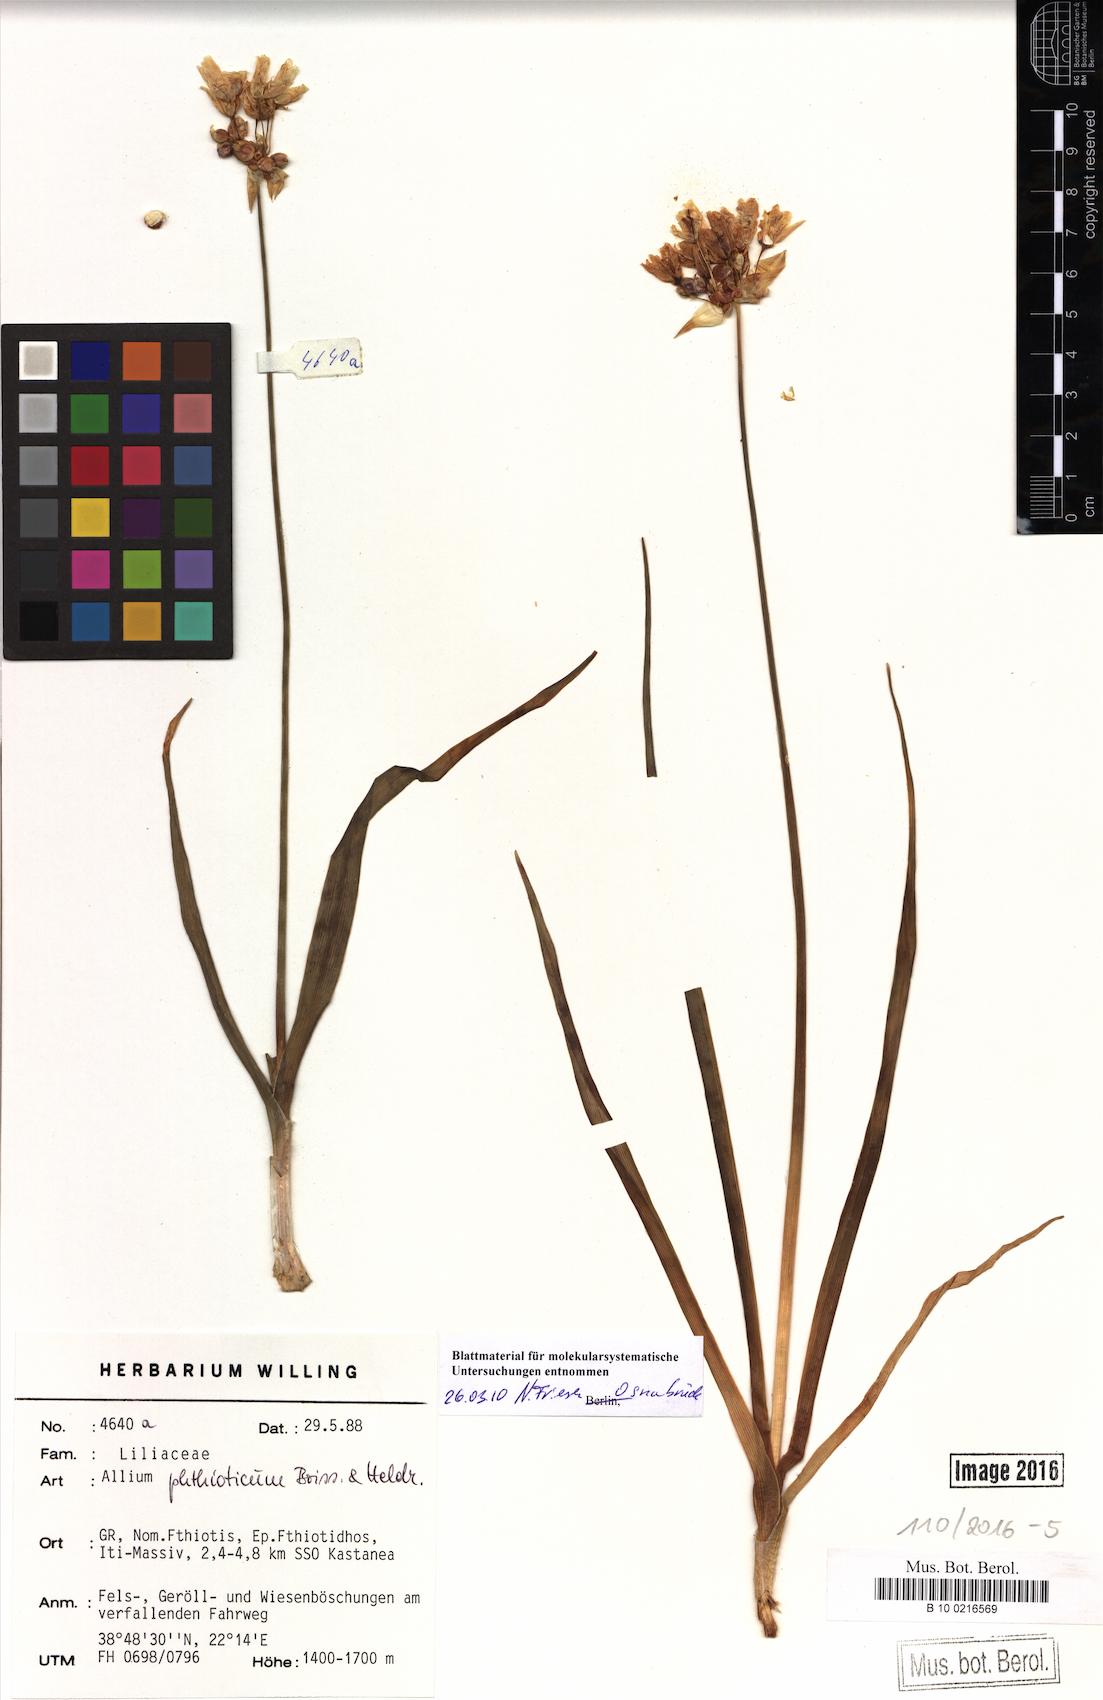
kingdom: Plantae
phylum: Tracheophyta
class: Liliopsida
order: Asparagales
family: Amaryllidaceae
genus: Allium
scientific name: Allium phthioticum
